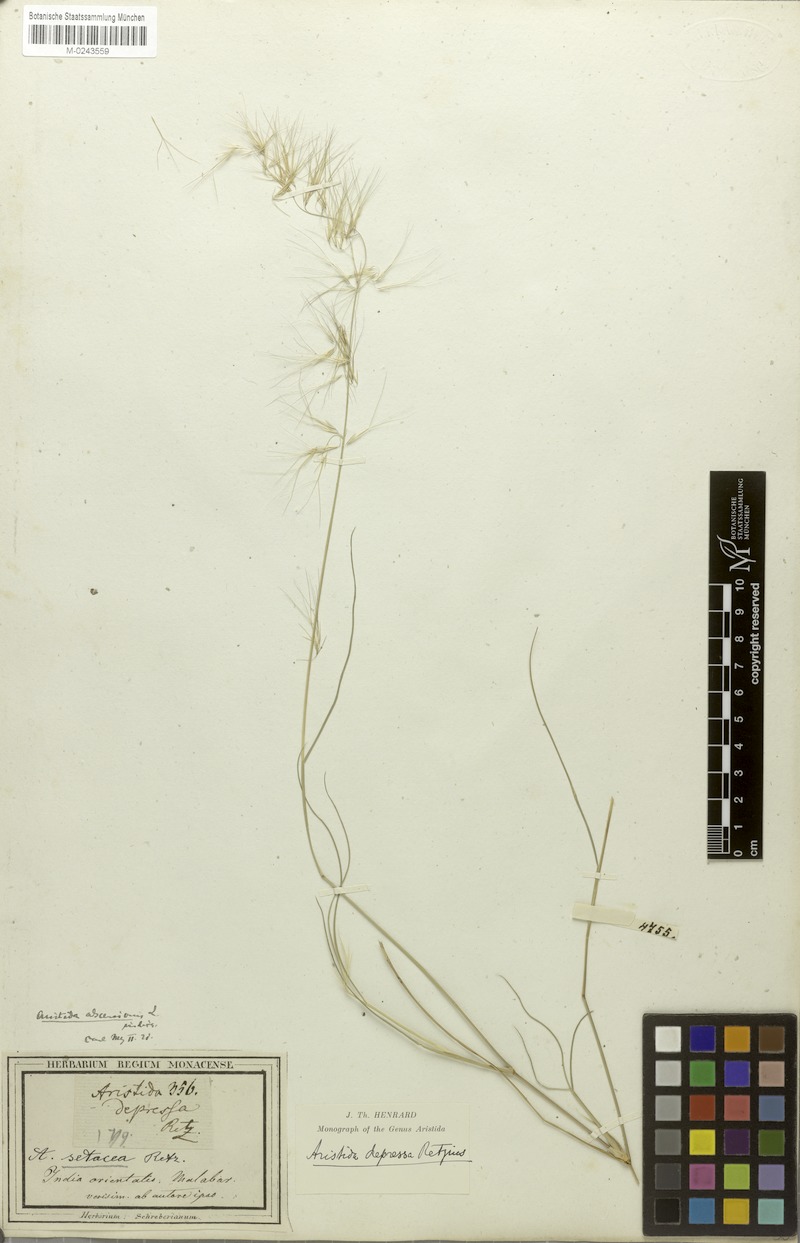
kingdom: Plantae
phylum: Tracheophyta
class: Liliopsida
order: Poales
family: Poaceae
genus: Aristida
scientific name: Aristida adscensionis
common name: Sixweeks threeawn
